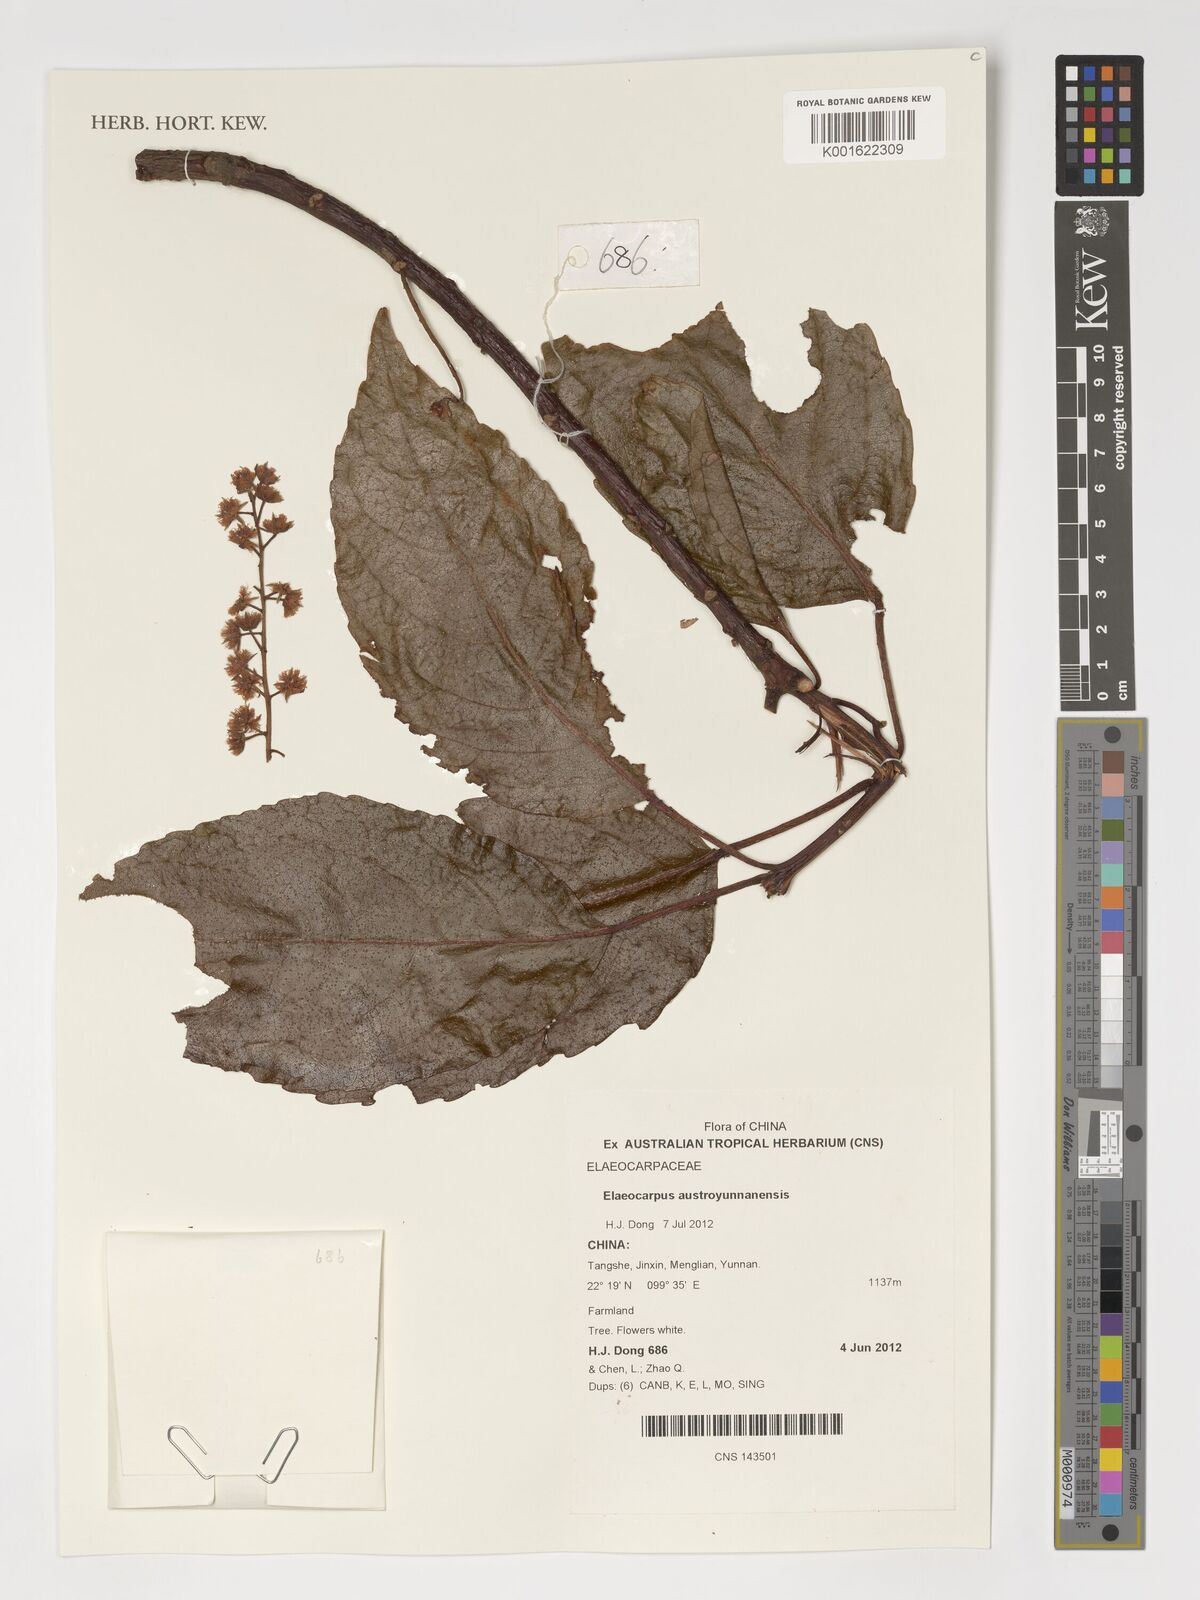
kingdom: Plantae
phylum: Tracheophyta
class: Magnoliopsida
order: Oxalidales
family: Elaeocarpaceae
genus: Elaeocarpus
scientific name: Elaeocarpus austroyunnanensis
